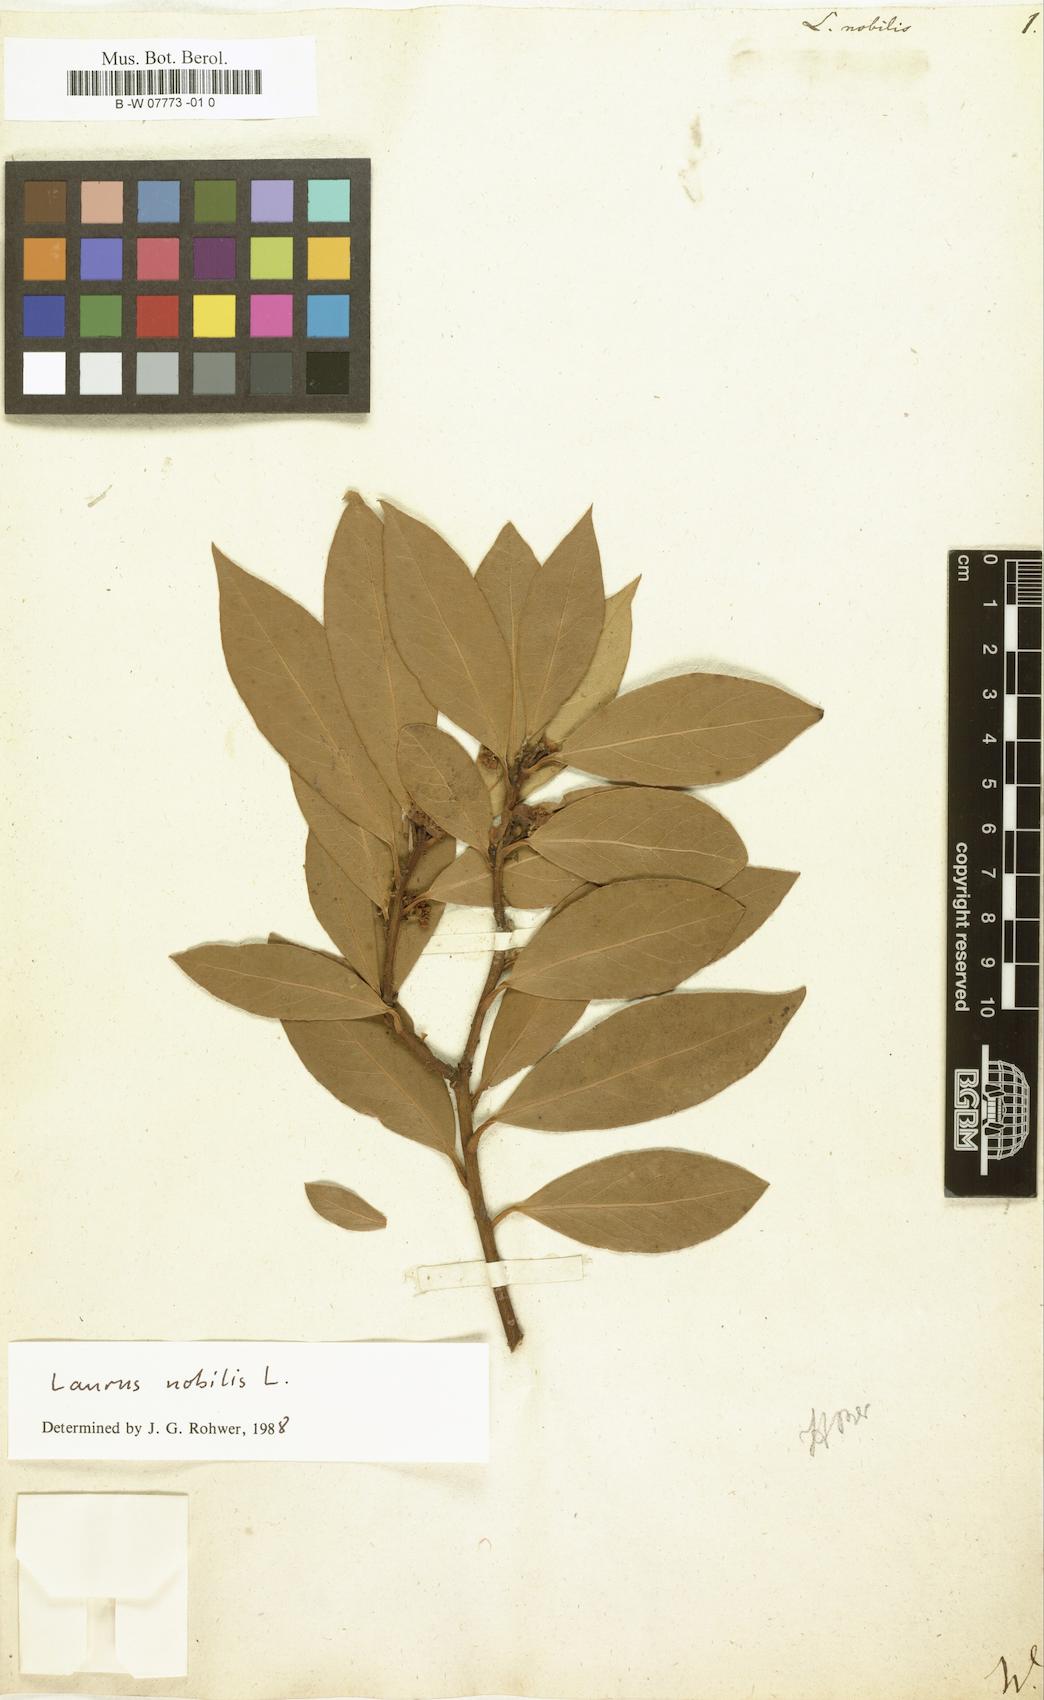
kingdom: Plantae
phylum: Tracheophyta
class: Magnoliopsida
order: Laurales
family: Lauraceae
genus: Laurus
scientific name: Laurus nobilis
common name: Bay
